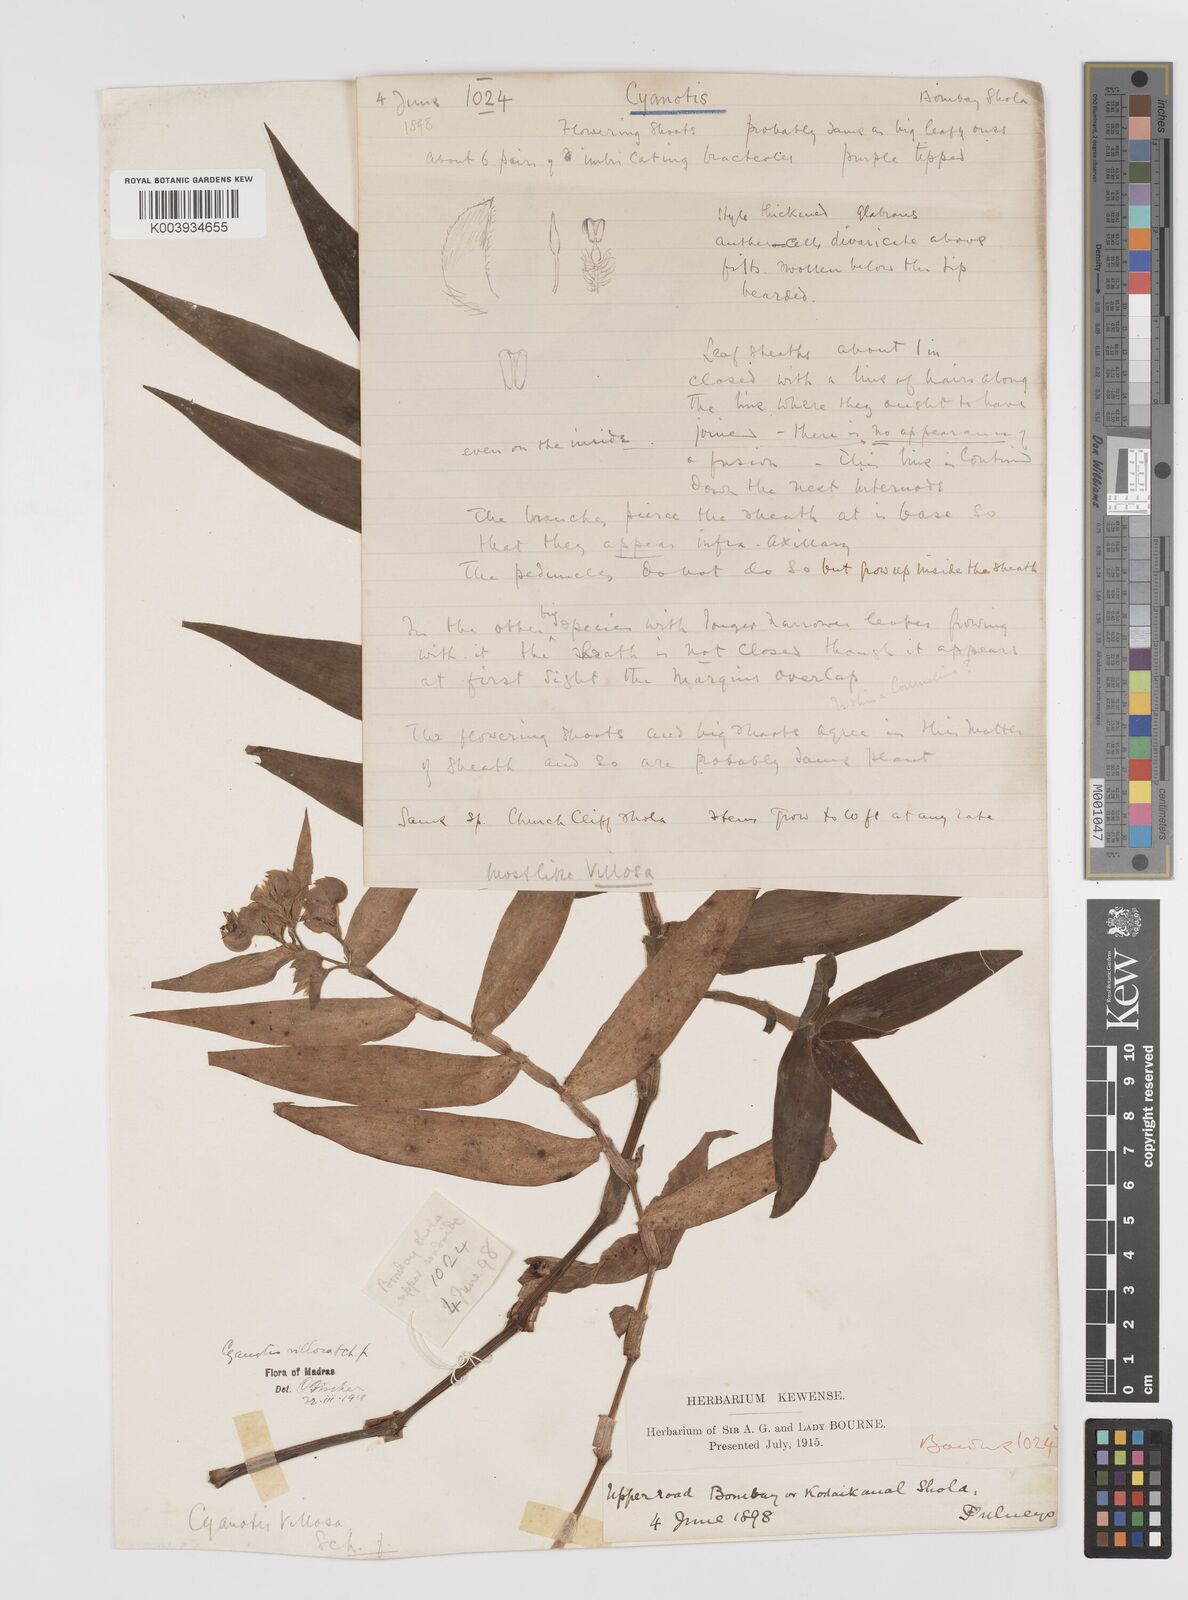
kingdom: Plantae
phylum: Tracheophyta
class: Liliopsida
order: Commelinales
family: Commelinaceae
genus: Cyanotis
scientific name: Cyanotis villosa
